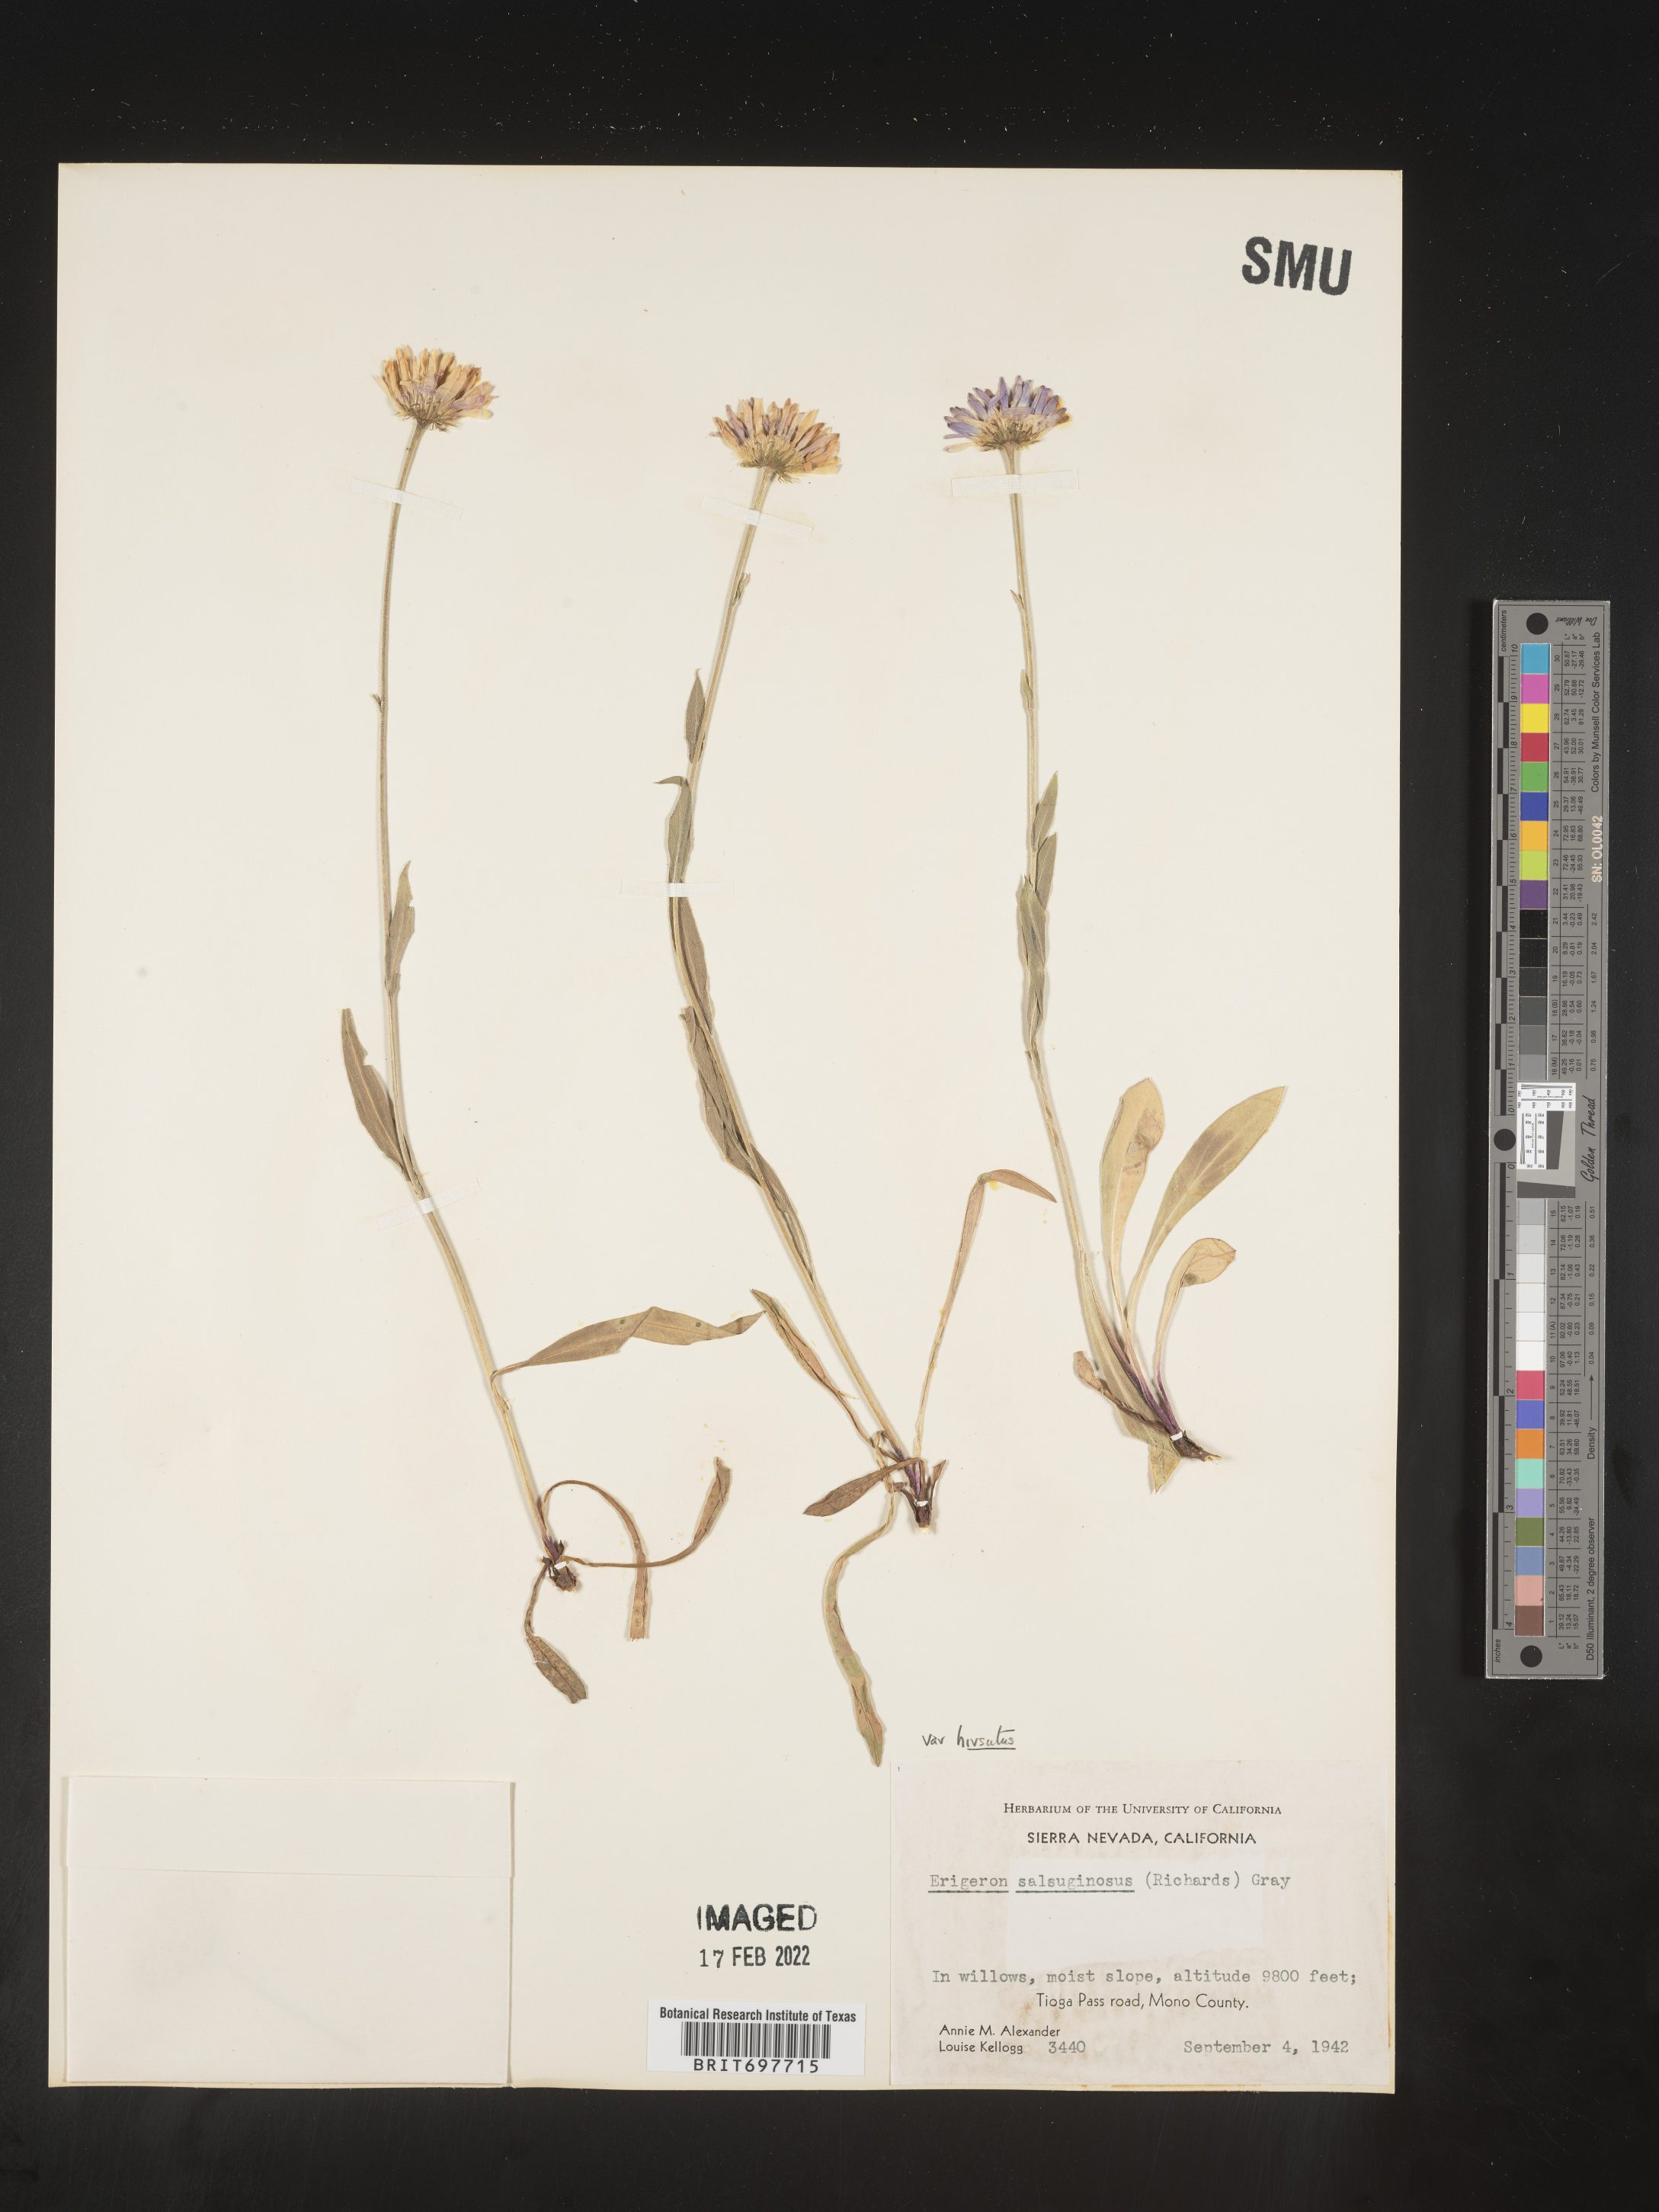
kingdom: Plantae
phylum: Tracheophyta
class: Magnoliopsida
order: Asterales
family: Asteraceae
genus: Erigeron
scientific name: Erigeron glacialis
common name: Subalpine fleabane
